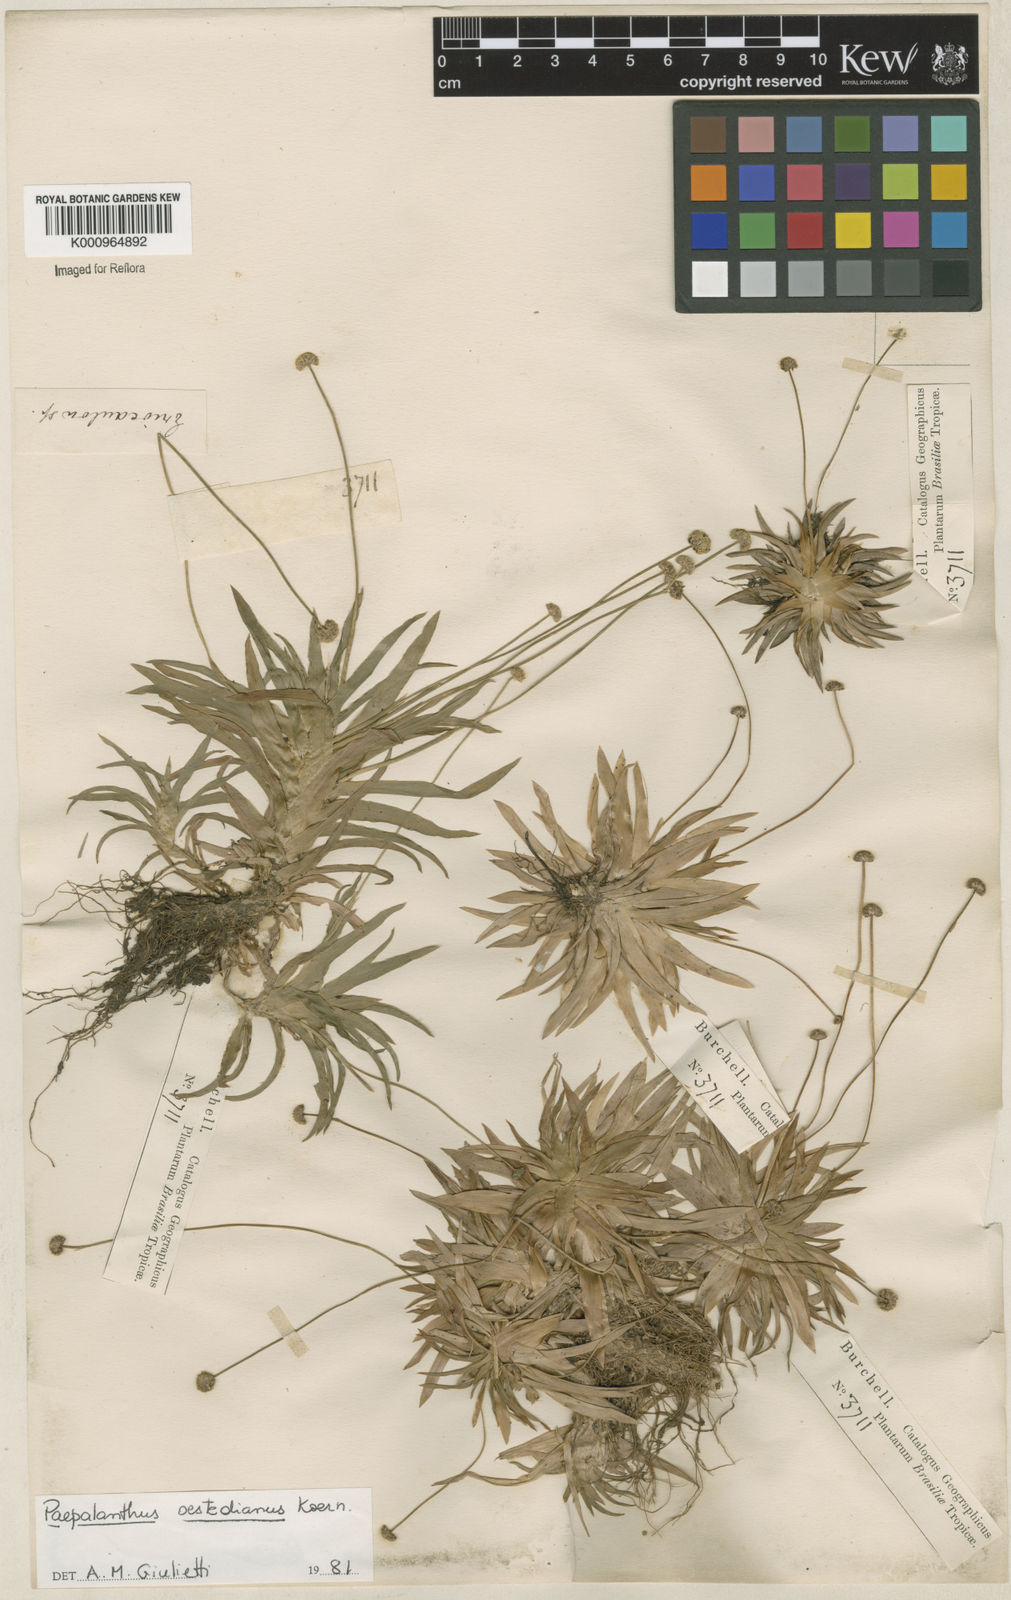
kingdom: Plantae
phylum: Tracheophyta
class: Liliopsida
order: Poales
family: Eriocaulaceae
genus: Paepalanthus
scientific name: Paepalanthus
